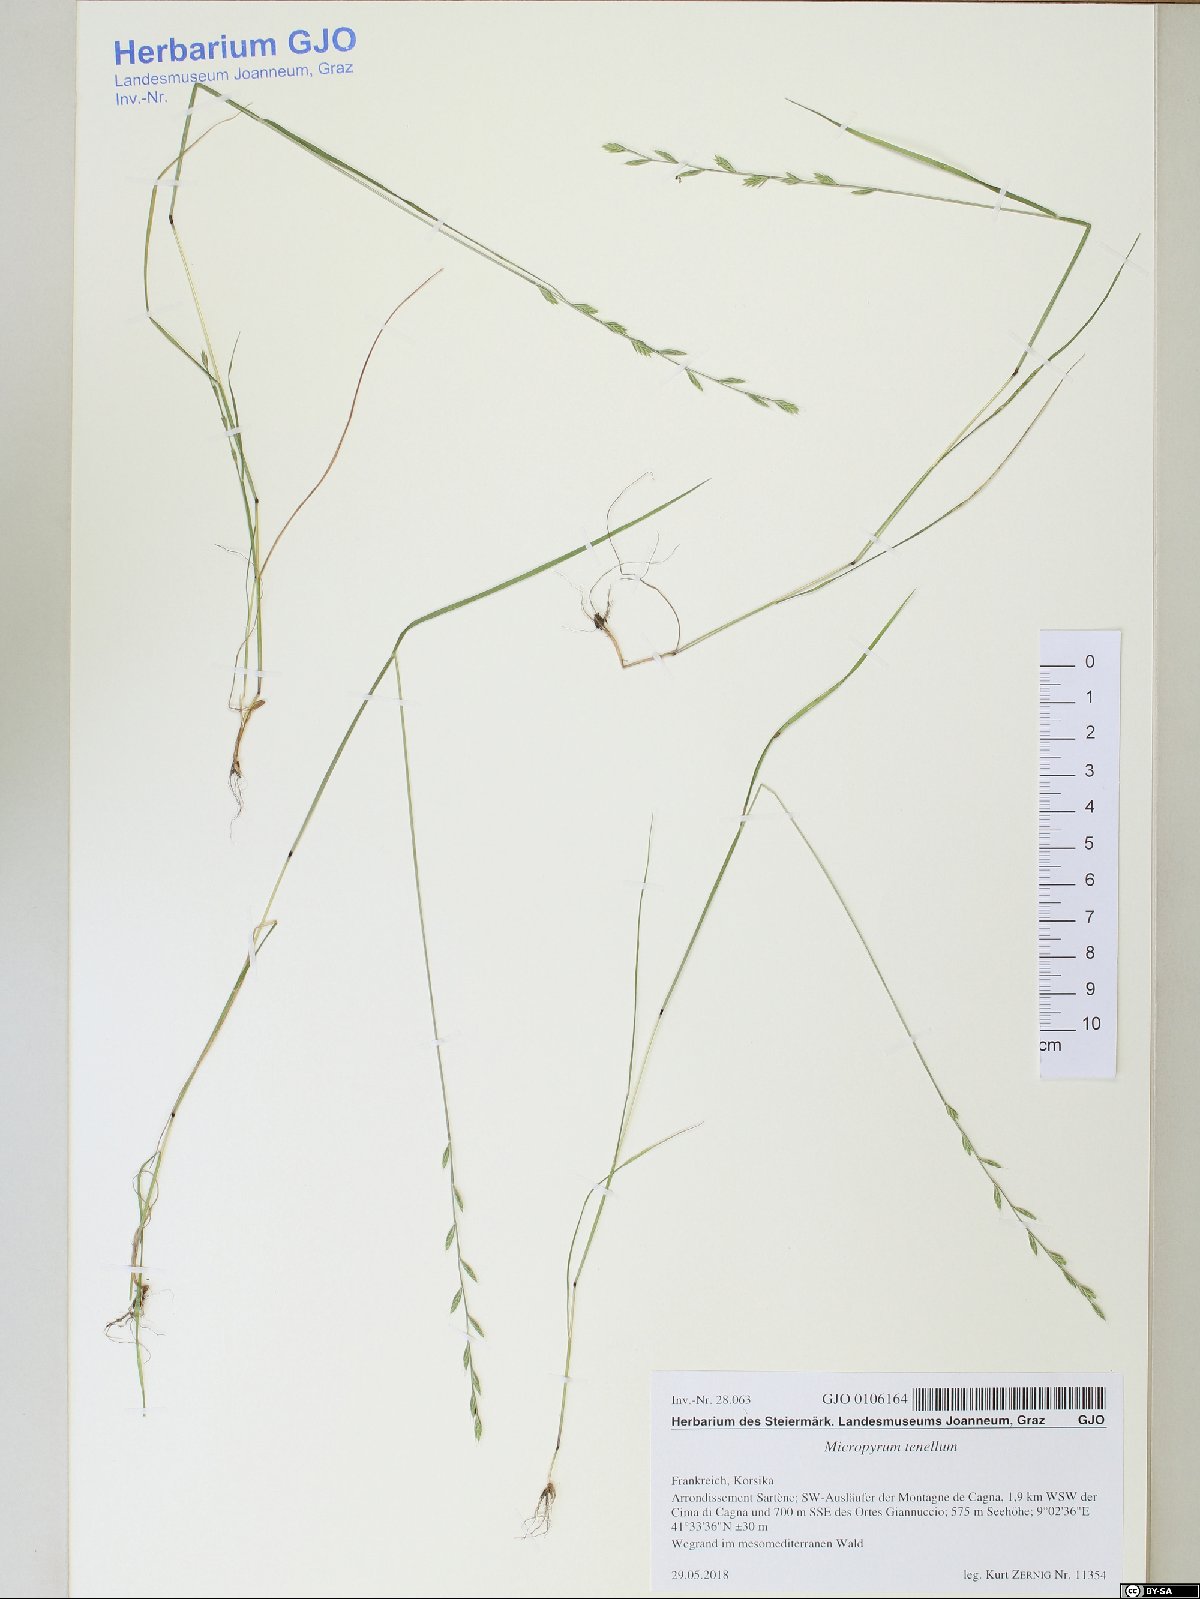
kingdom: Plantae
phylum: Tracheophyta
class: Liliopsida
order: Poales
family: Poaceae
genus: Festuca
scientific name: Festuca lachenalii
